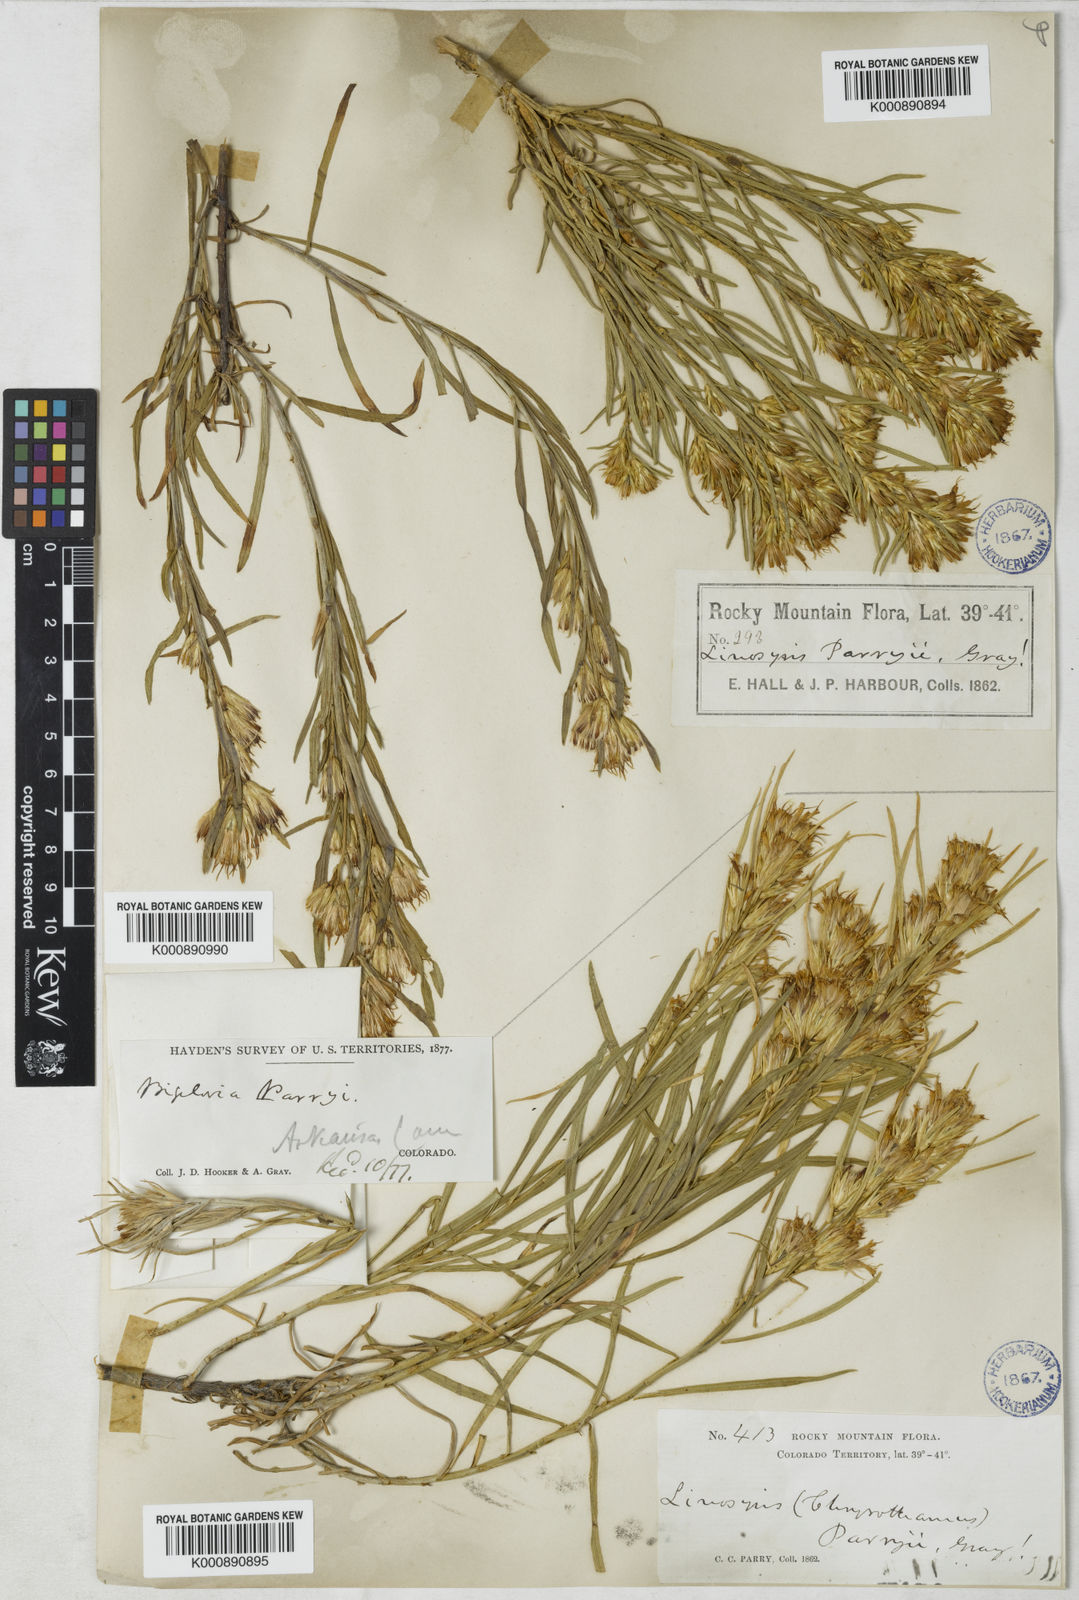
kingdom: Plantae
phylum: Tracheophyta
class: Magnoliopsida
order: Asterales
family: Asteraceae
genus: Ericameria
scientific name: Ericameria parryi
